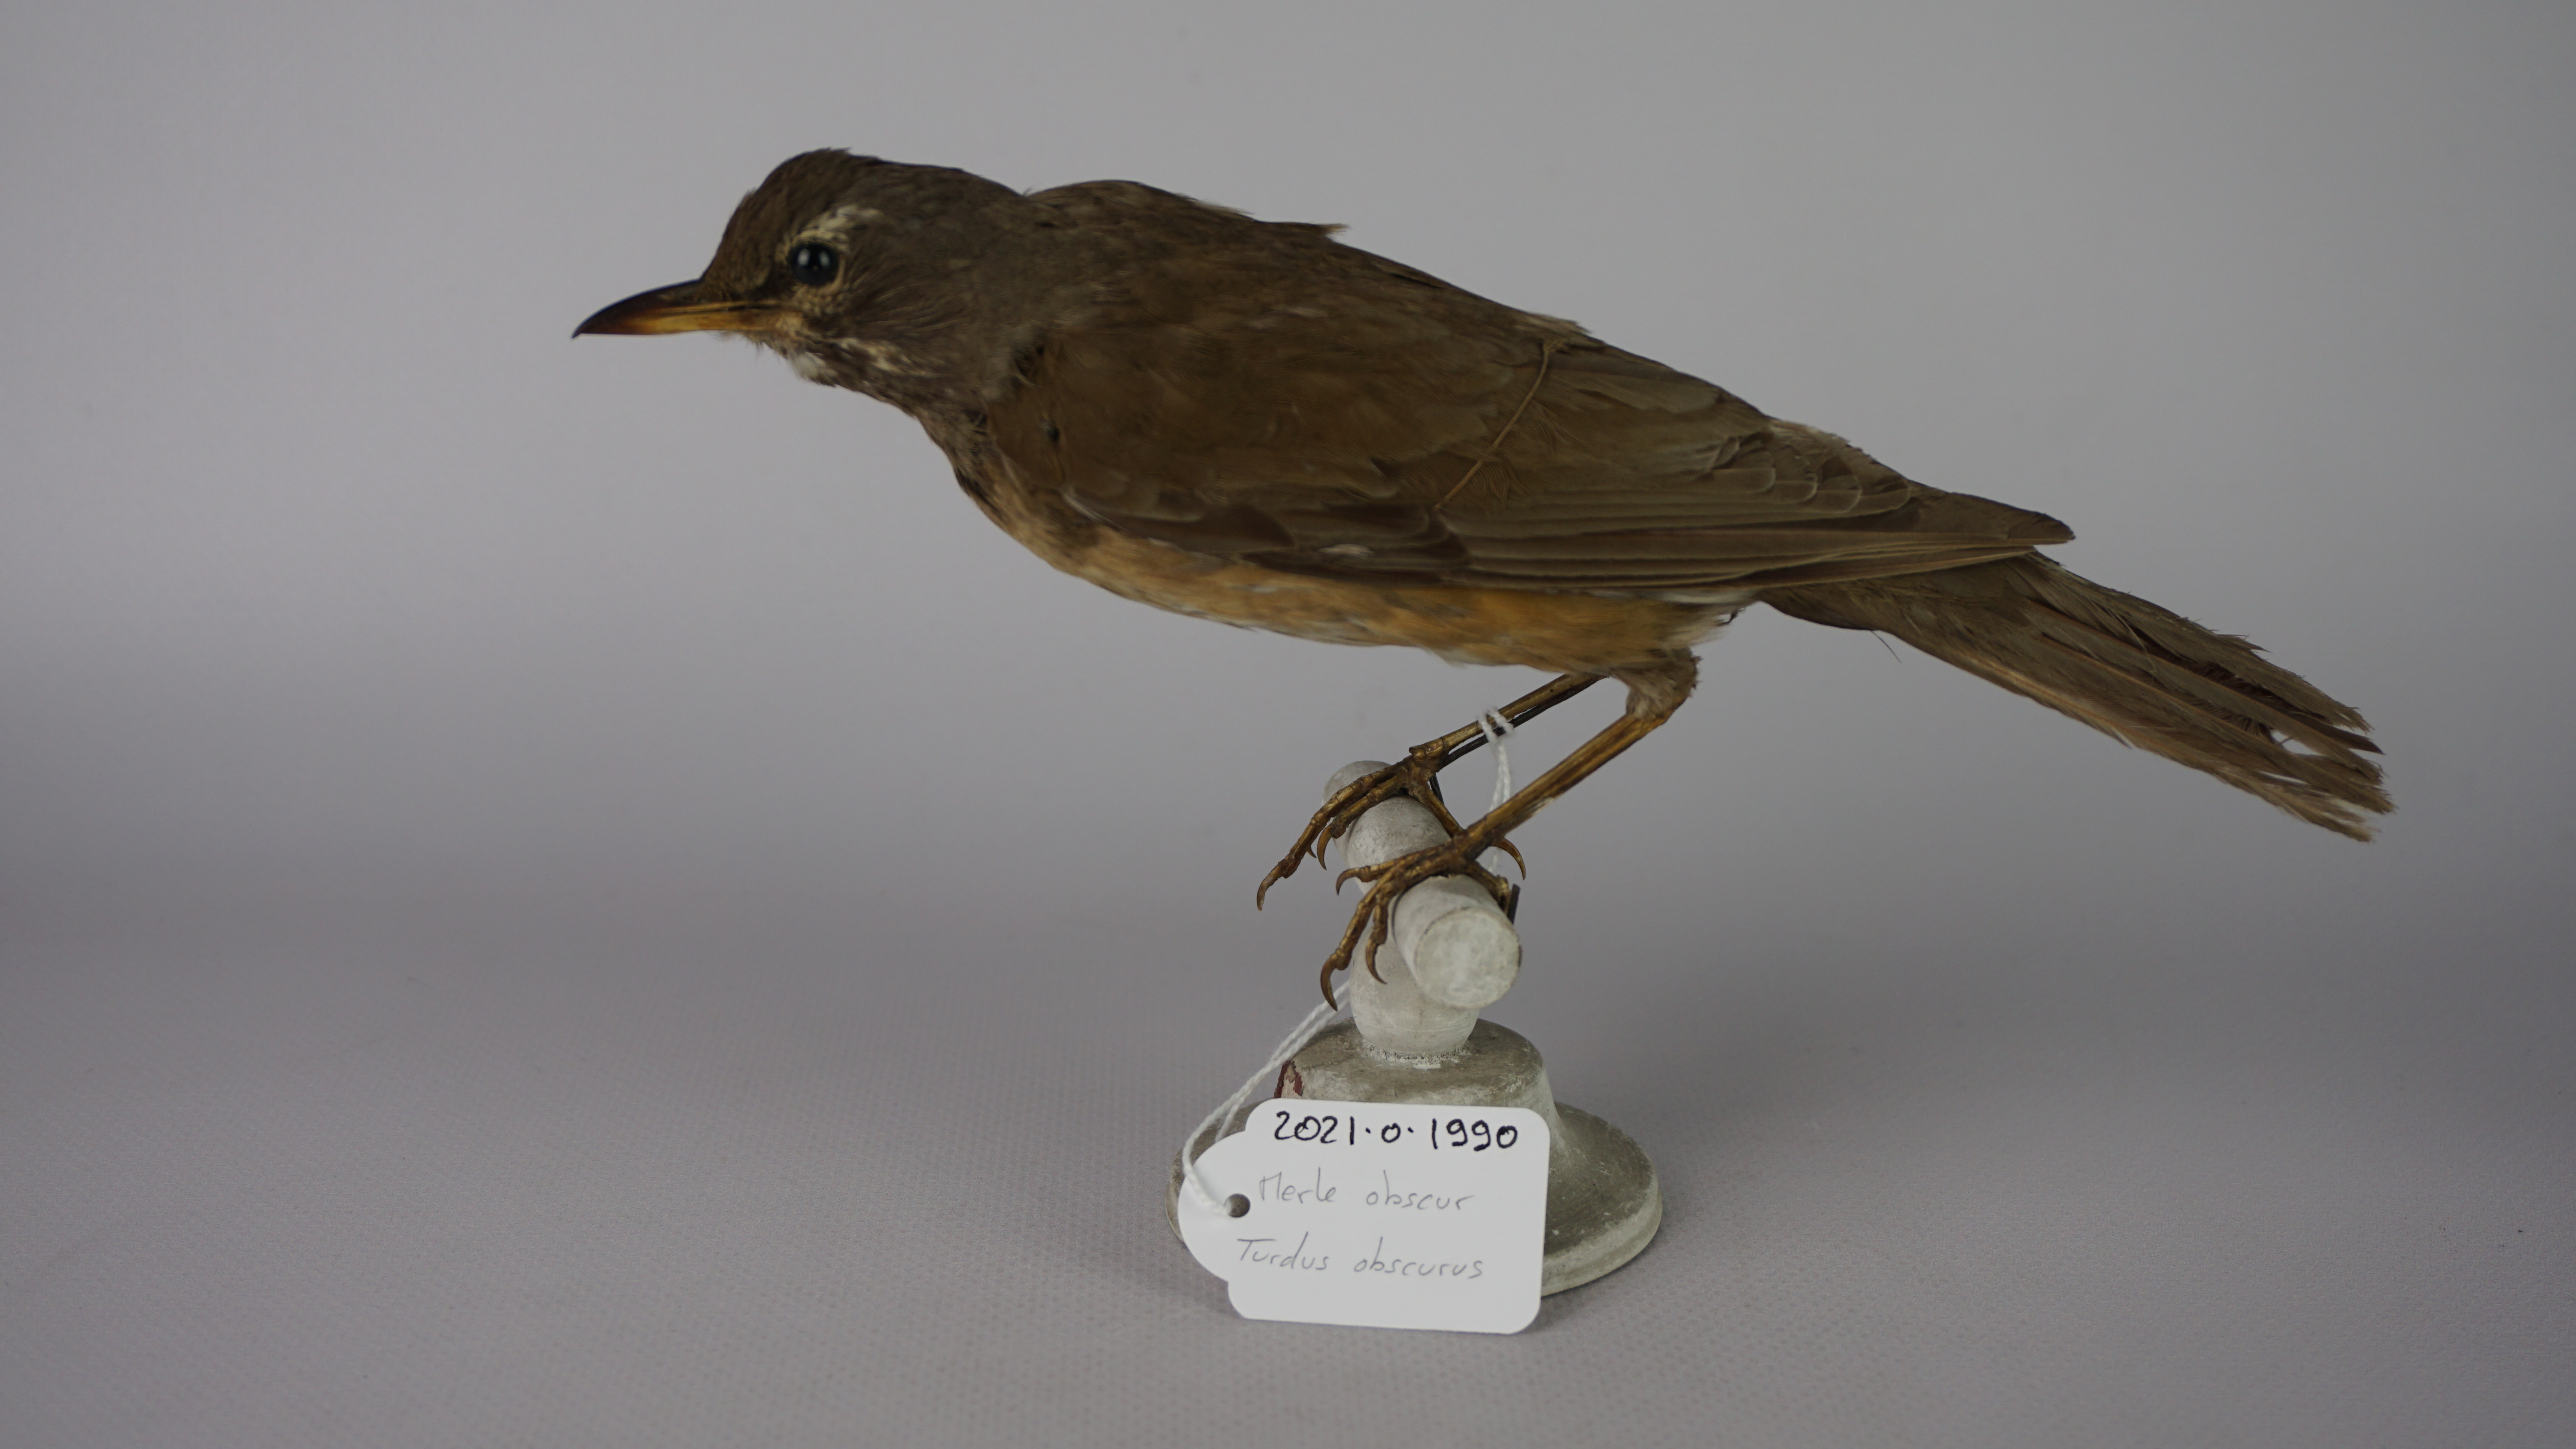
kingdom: Animalia
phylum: Chordata
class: Aves
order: Passeriformes
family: Turdidae
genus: Turdus
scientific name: Turdus obscurus
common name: Eyebrowed thrush
